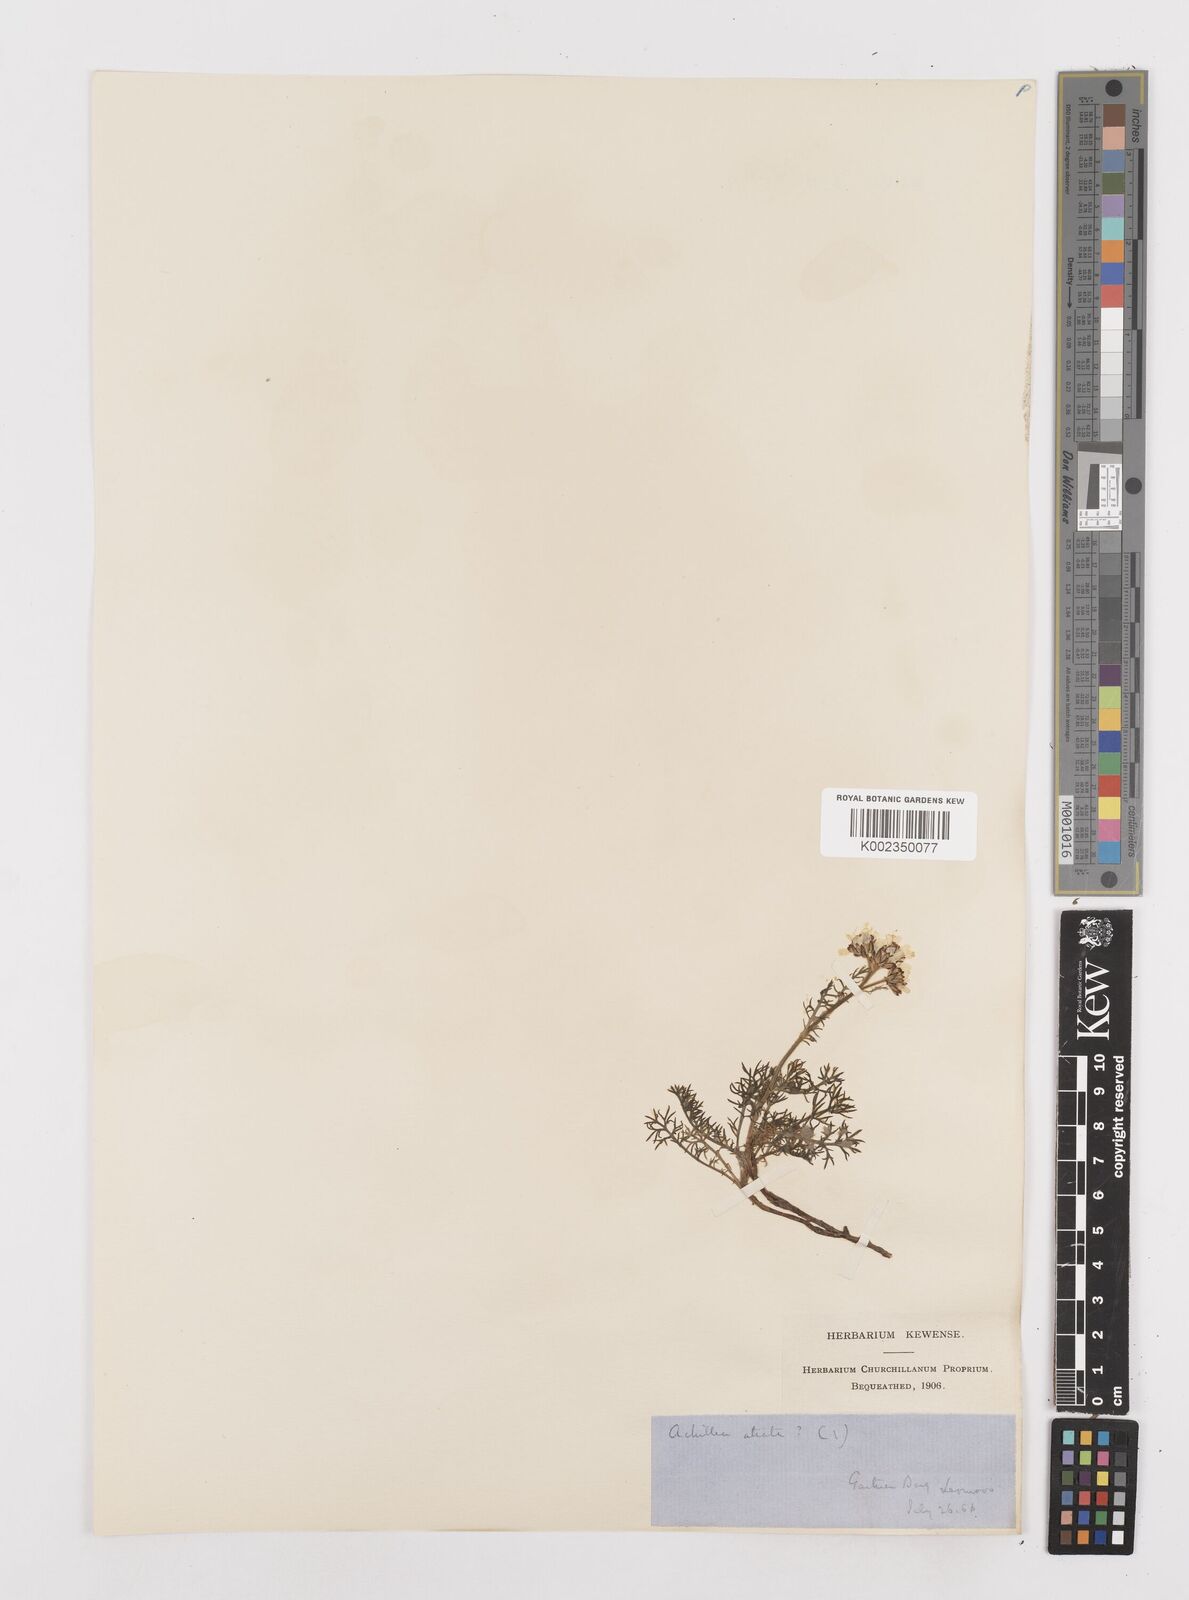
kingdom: Plantae
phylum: Tracheophyta
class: Magnoliopsida
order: Asterales
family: Asteraceae
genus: Achillea
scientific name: Achillea atrata
